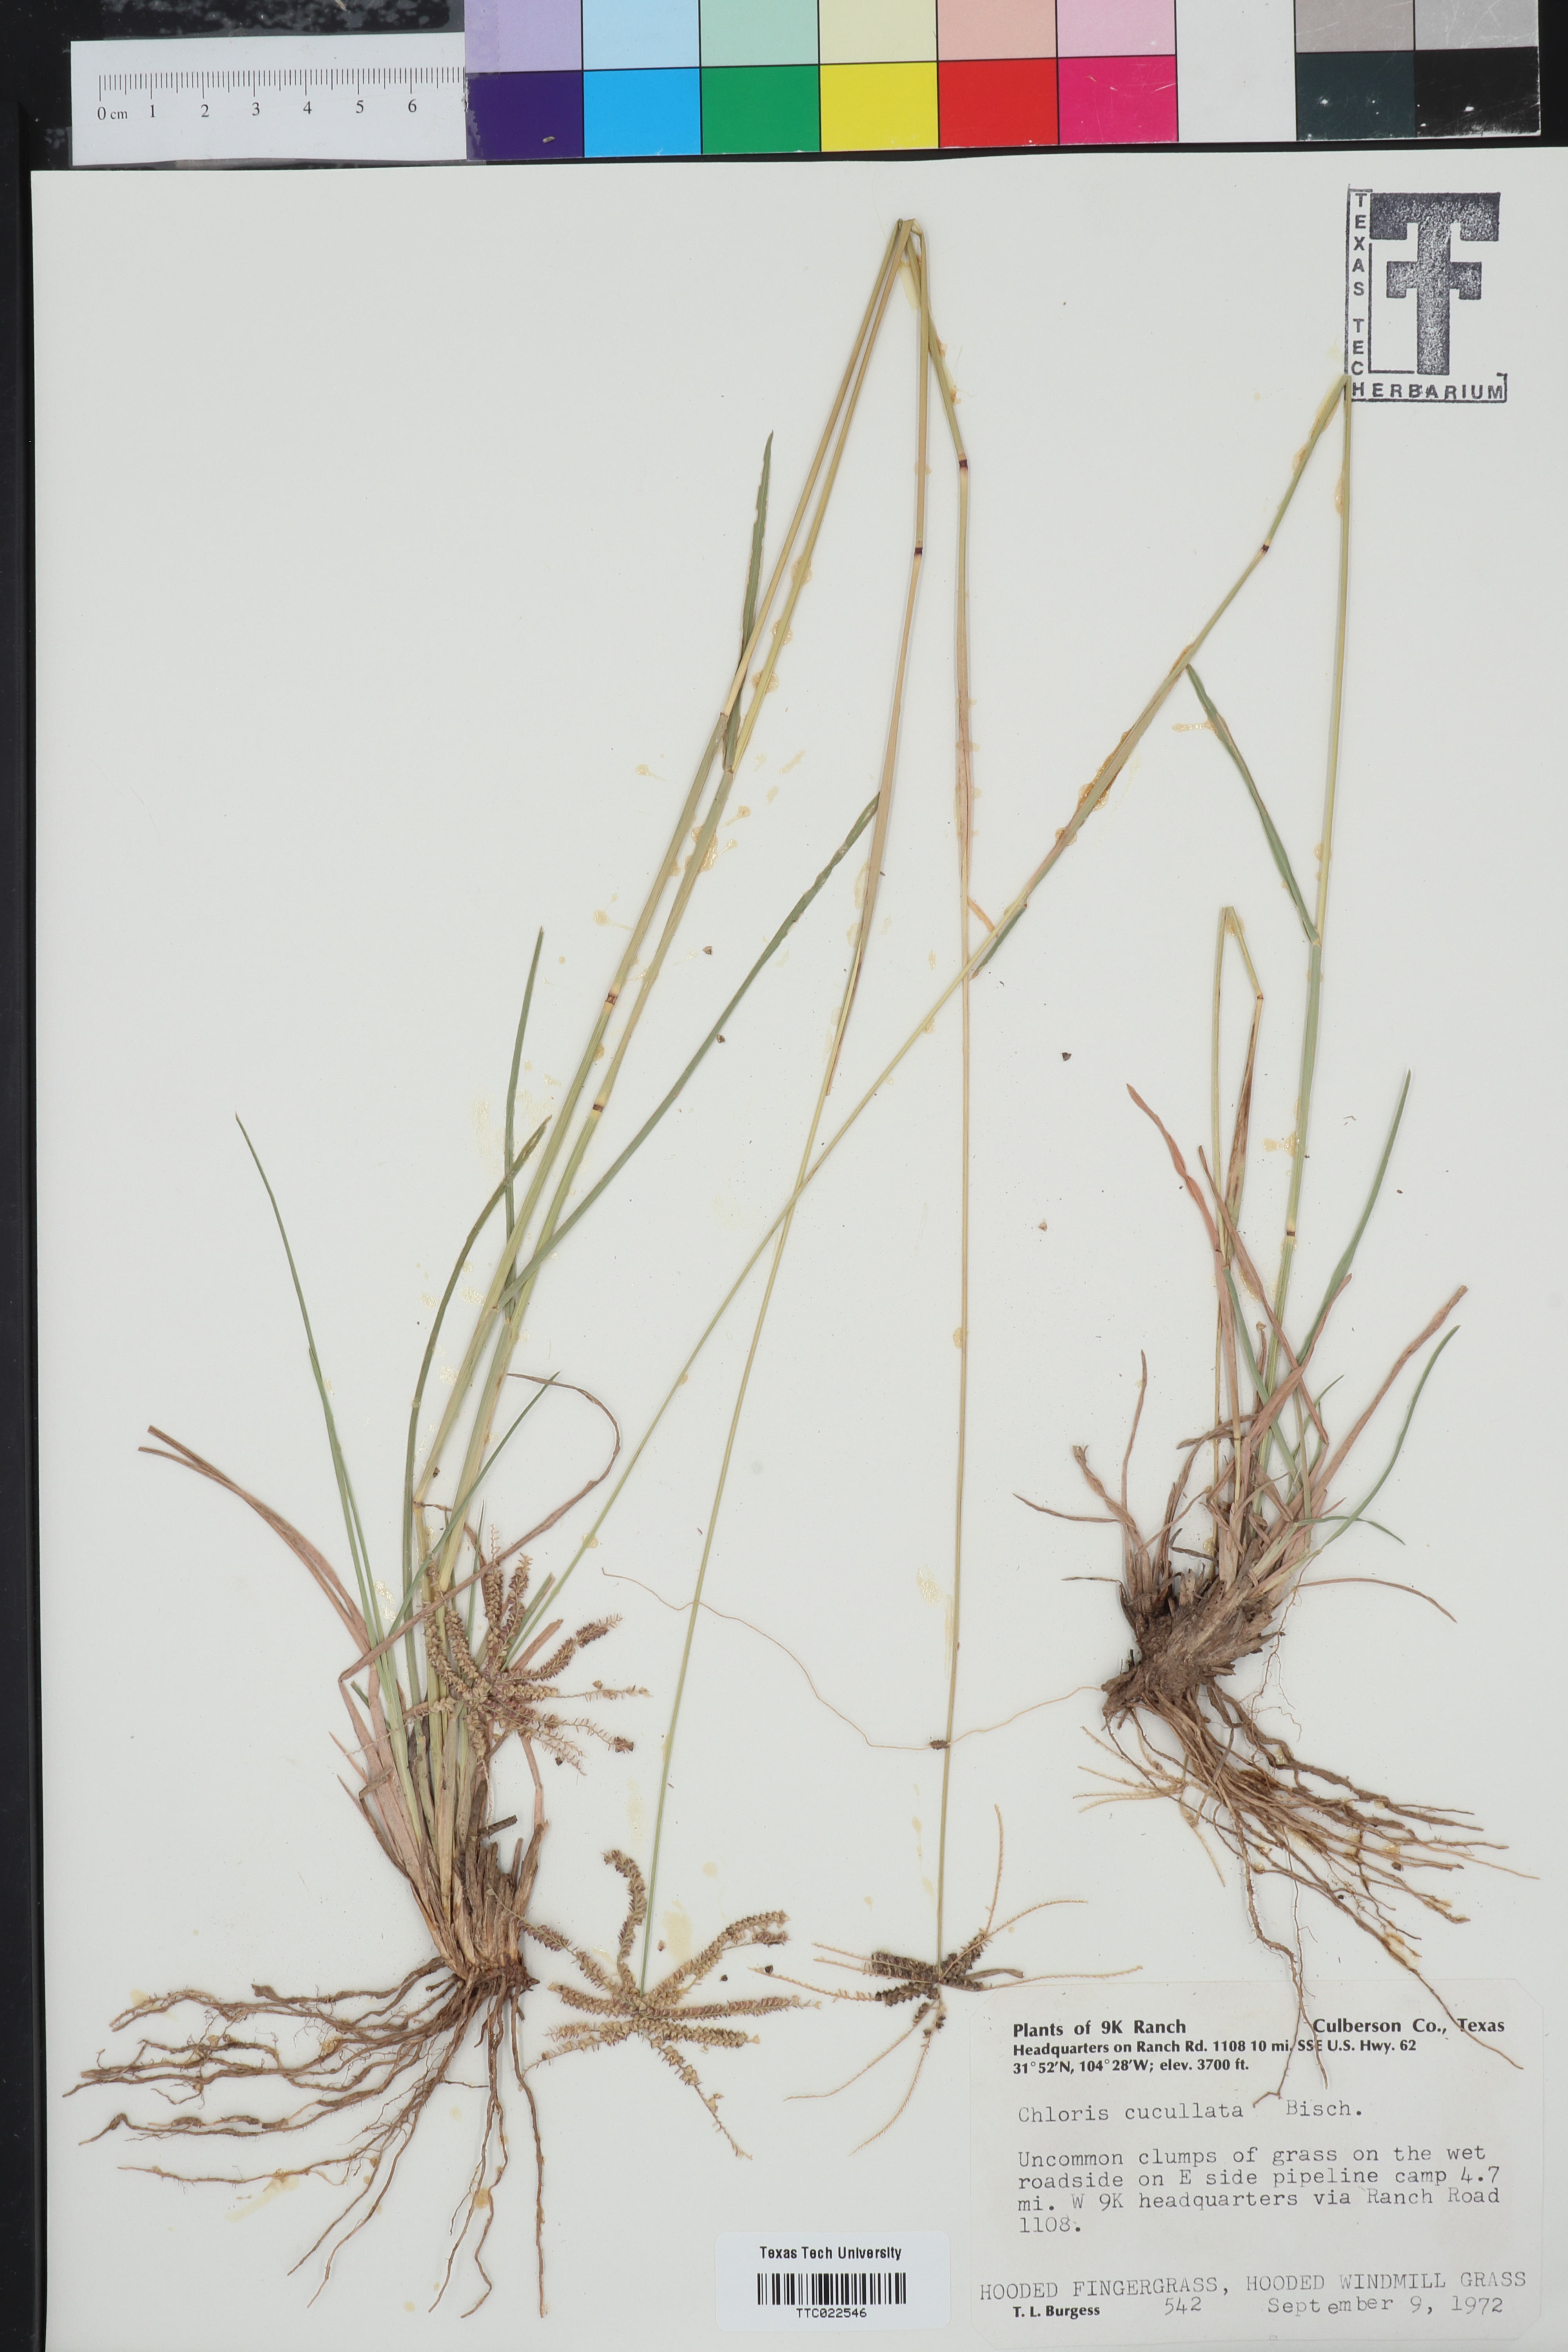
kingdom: Plantae
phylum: Tracheophyta
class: Liliopsida
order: Poales
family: Poaceae
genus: Chloris
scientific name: Chloris cucullata
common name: Hooded windmill grass
